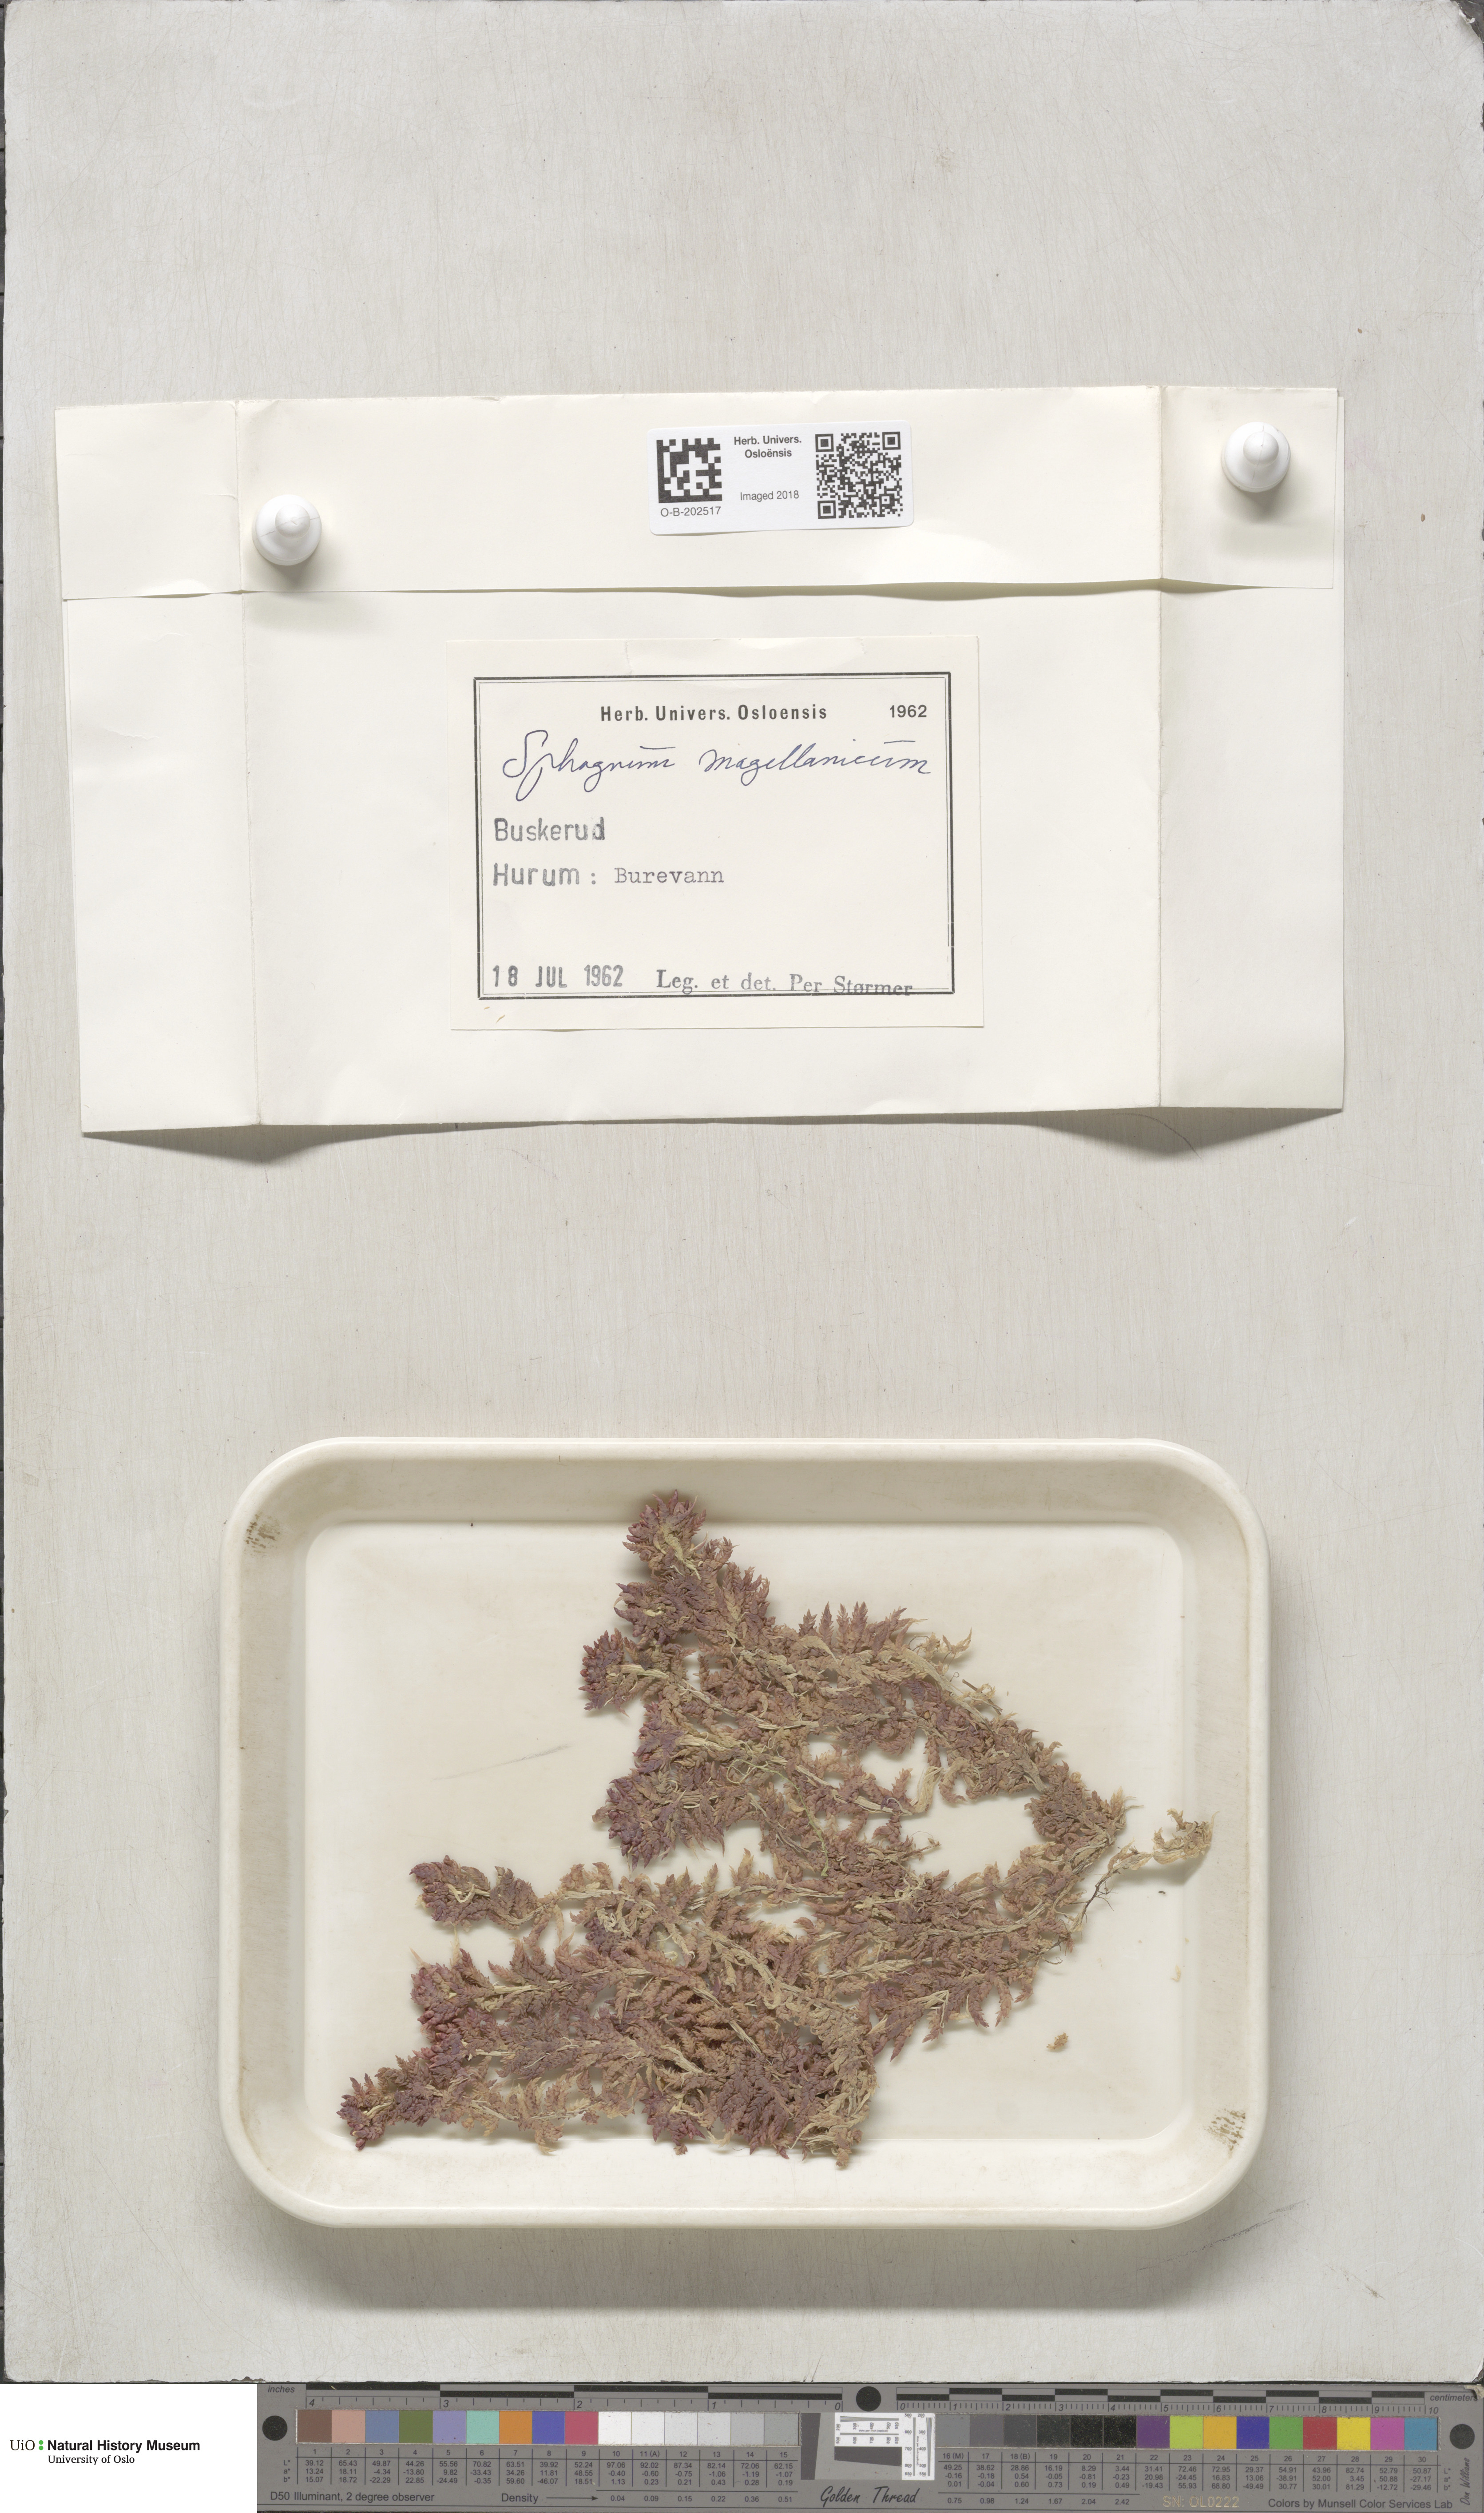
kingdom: Plantae
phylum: Bryophyta
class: Sphagnopsida
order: Sphagnales
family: Sphagnaceae
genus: Sphagnum
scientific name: Sphagnum magellanicum
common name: Magellan's peat moss
